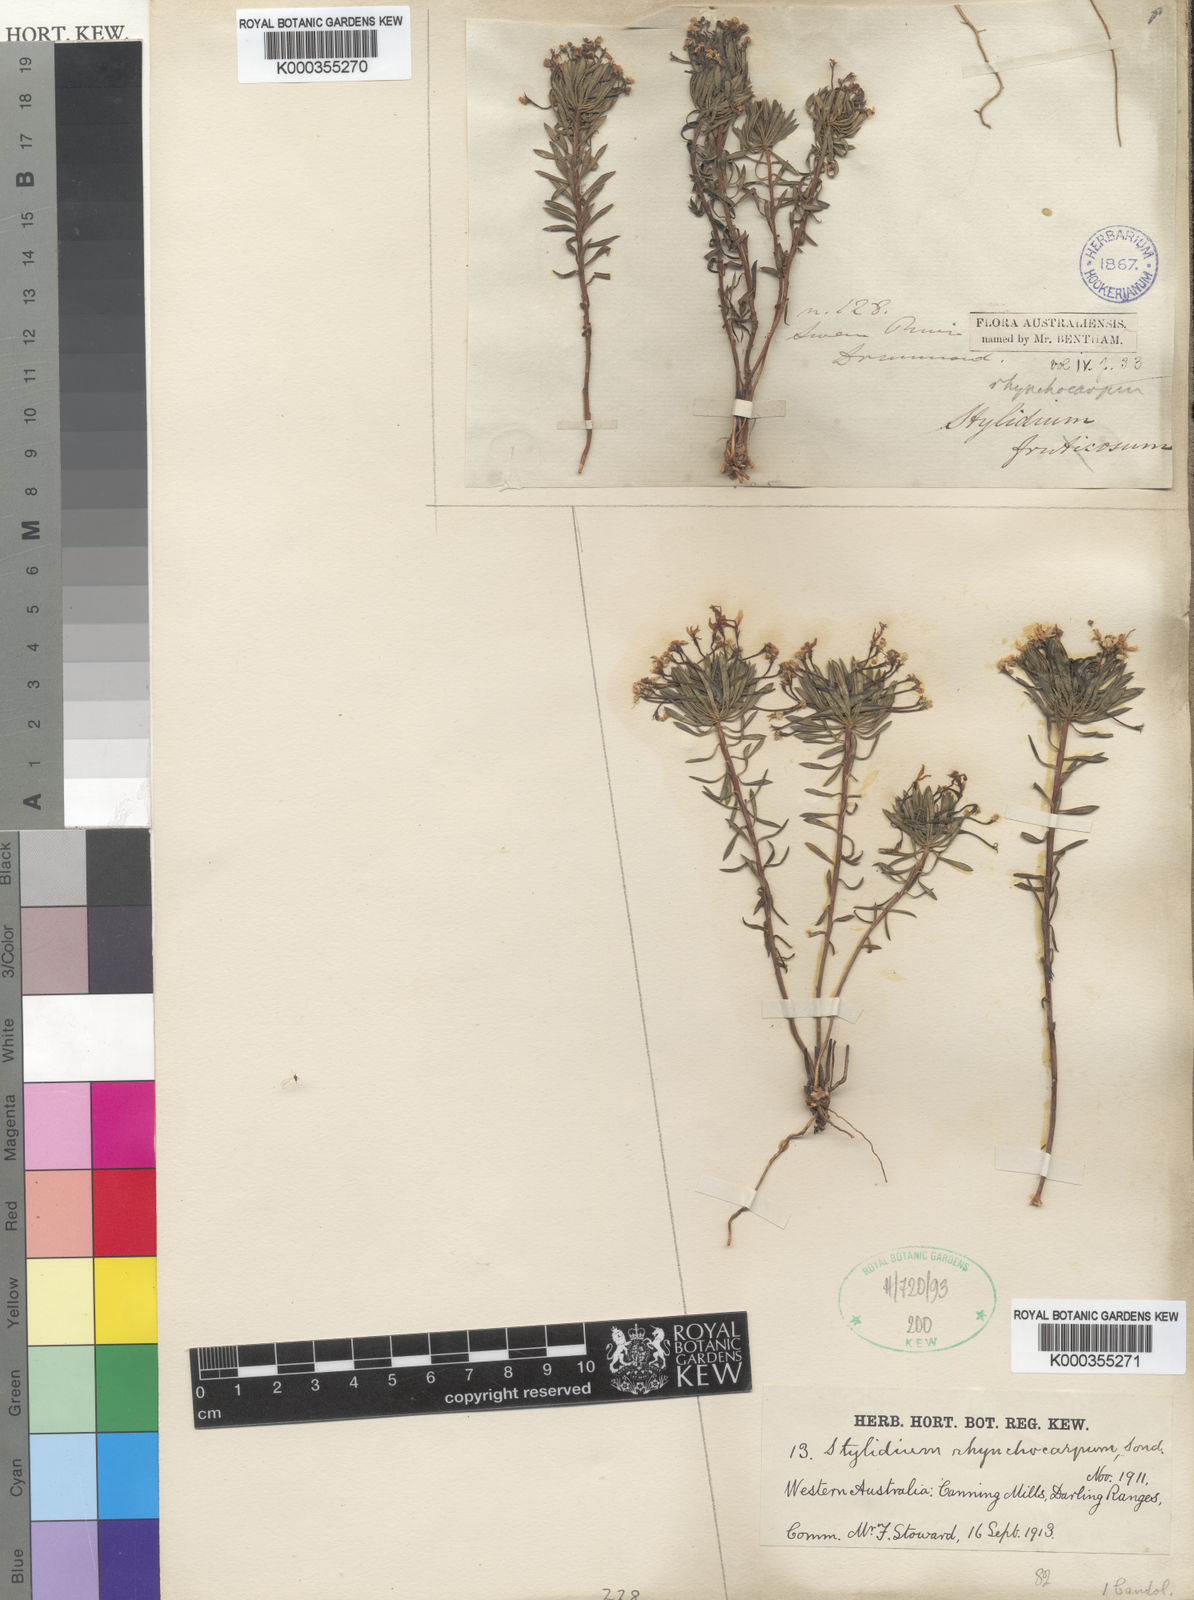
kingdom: Plantae
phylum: Tracheophyta
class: Magnoliopsida
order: Asterales
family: Stylidiaceae
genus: Stylidium
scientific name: Stylidium rhynchocarpum
